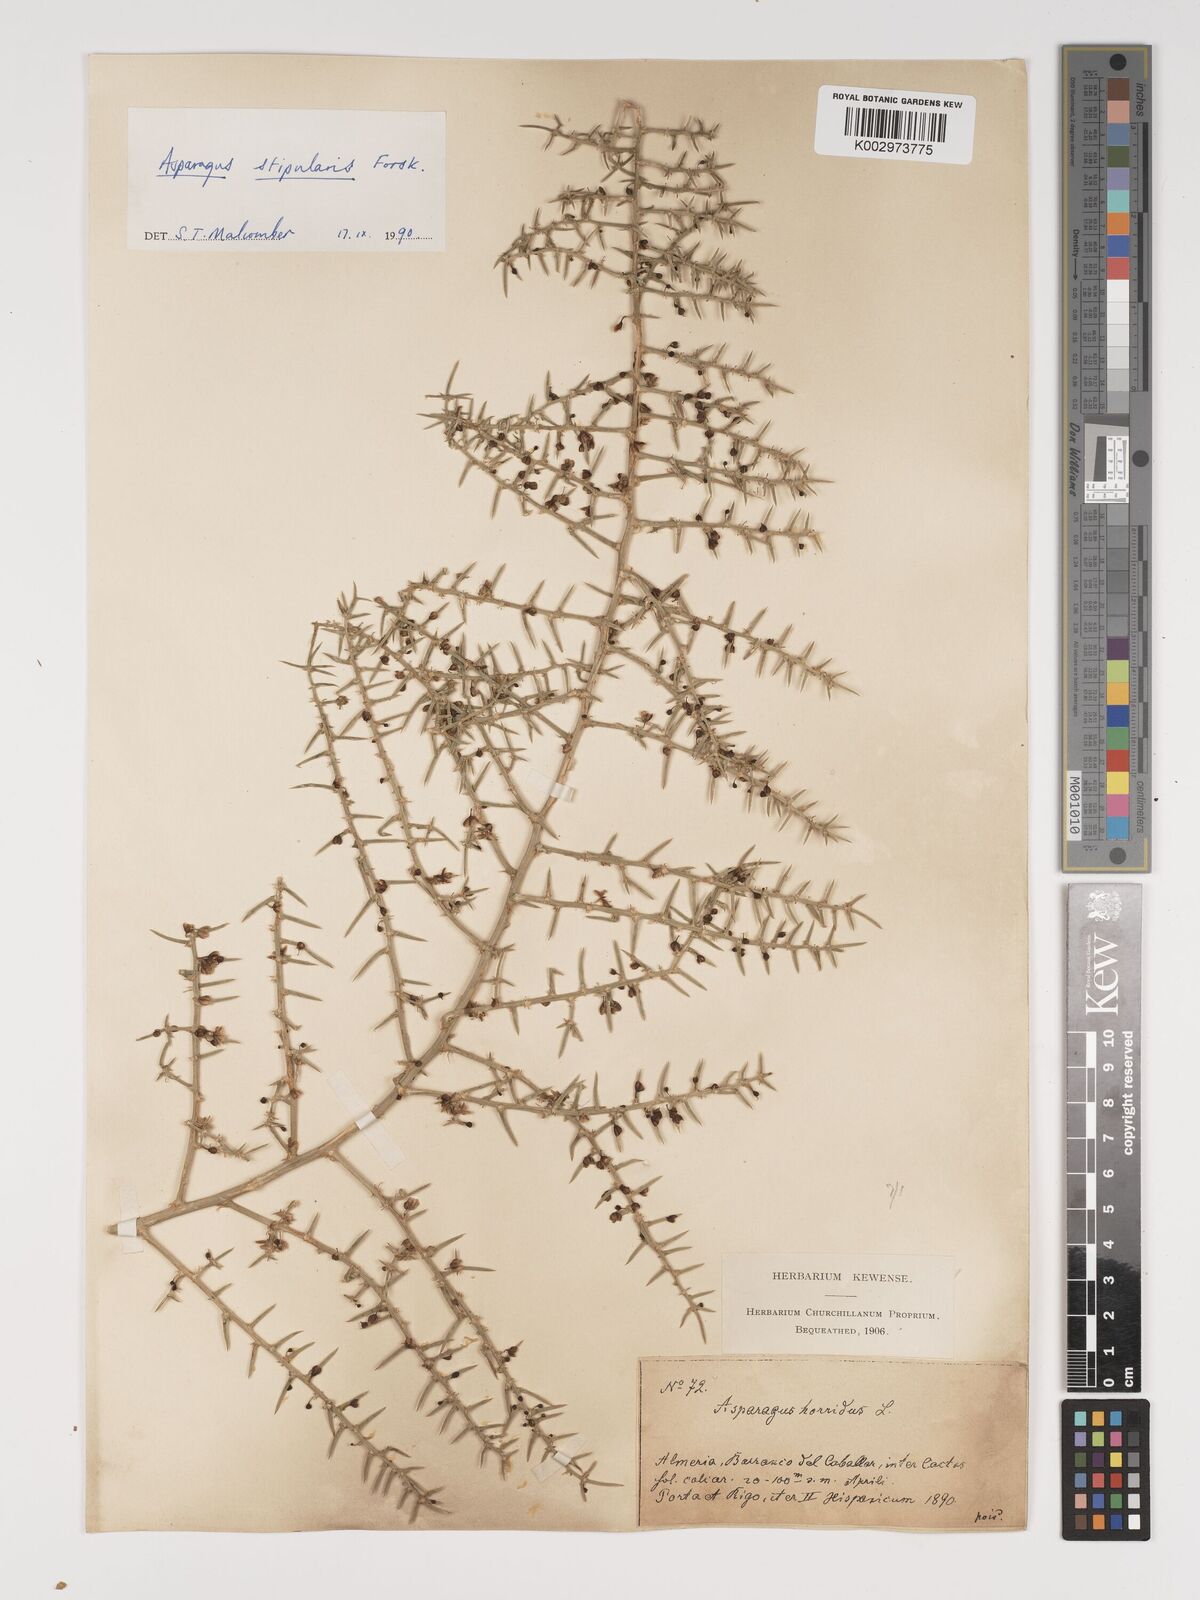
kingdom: Plantae
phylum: Tracheophyta
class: Liliopsida
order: Asparagales
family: Asparagaceae
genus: Asparagus
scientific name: Asparagus horridus
